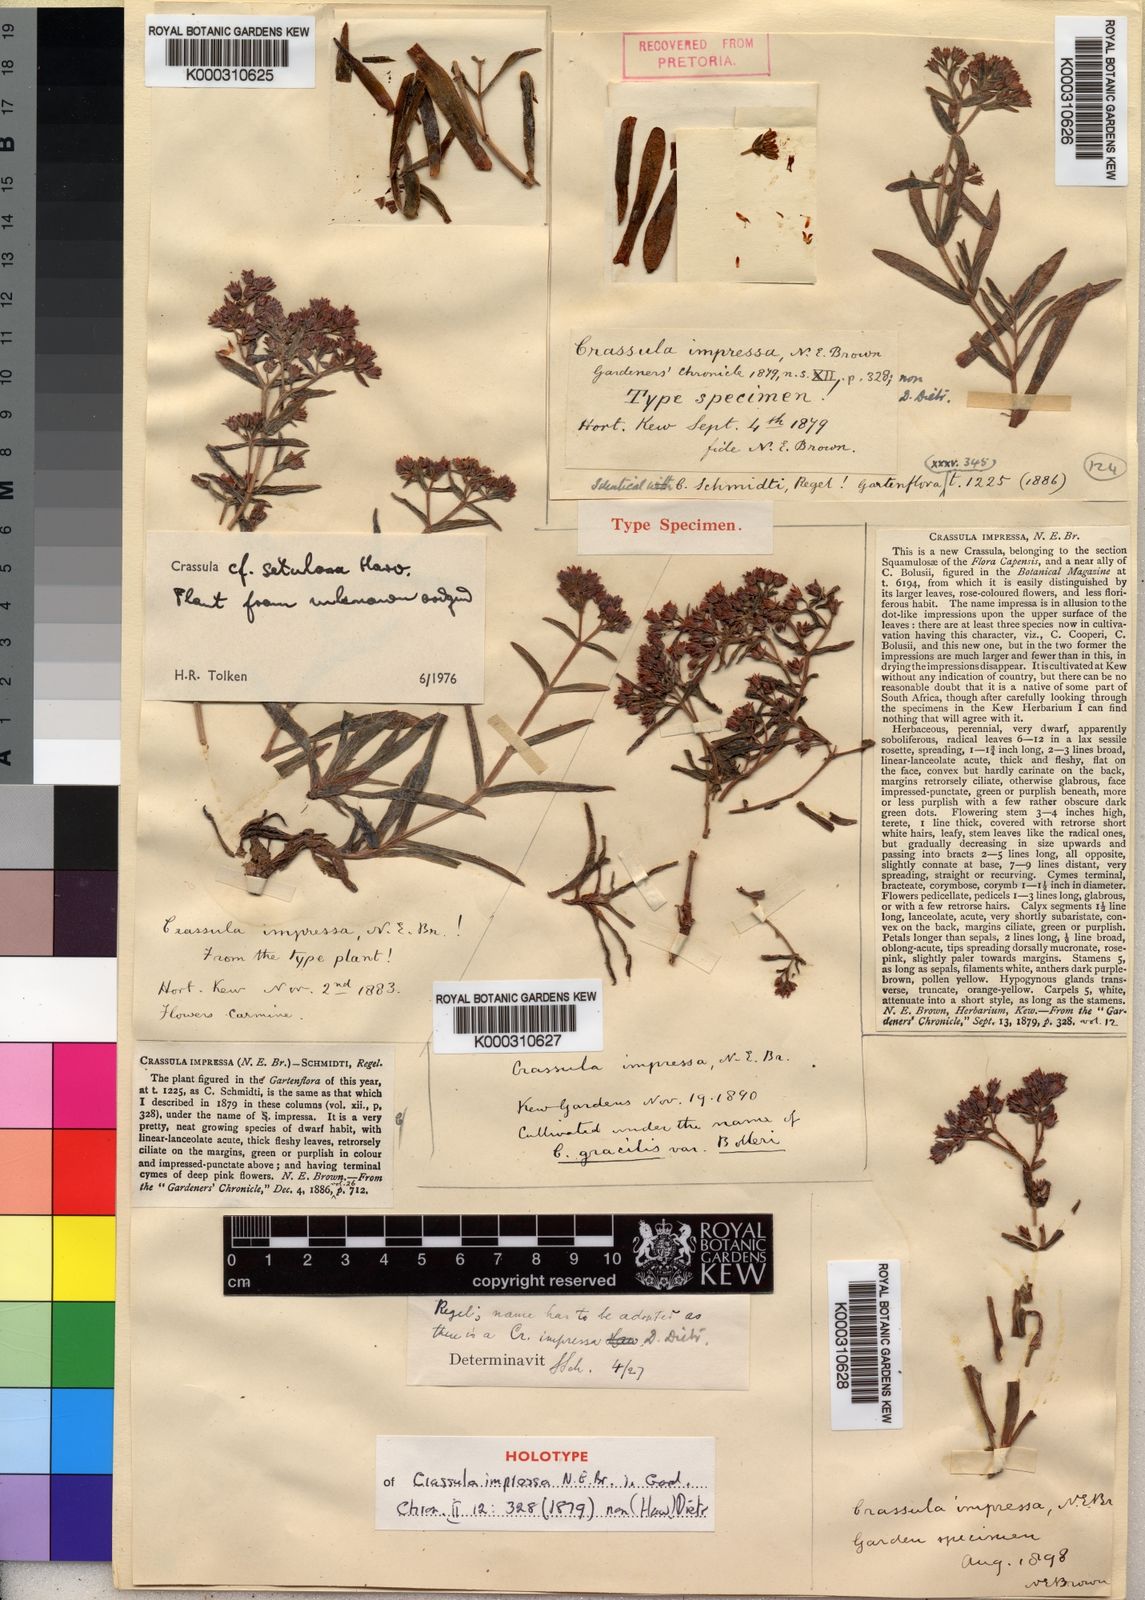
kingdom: Plantae
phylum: Tracheophyta
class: Magnoliopsida
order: Saxifragales
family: Crassulaceae
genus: Crassula
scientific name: Crassula setulosa
